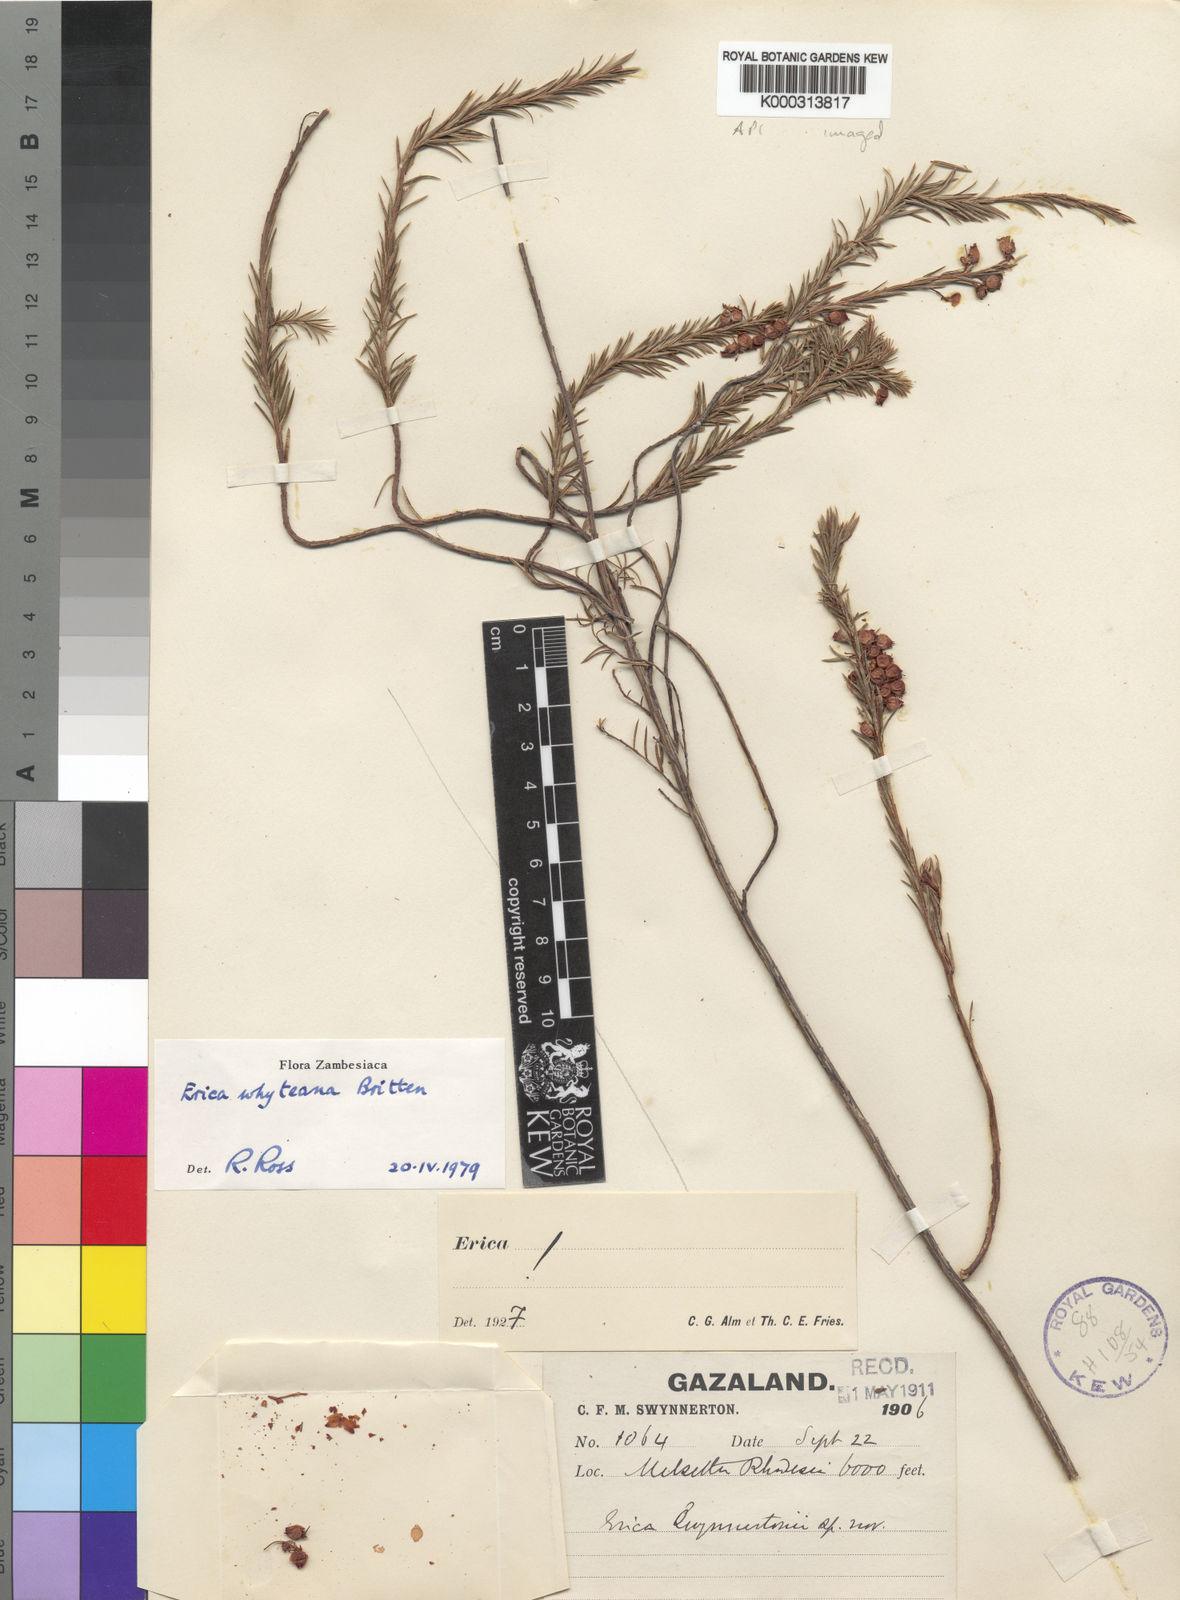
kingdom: Plantae
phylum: Tracheophyta
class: Magnoliopsida
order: Ericales
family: Ericaceae
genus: Erica
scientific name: Erica whyteana
